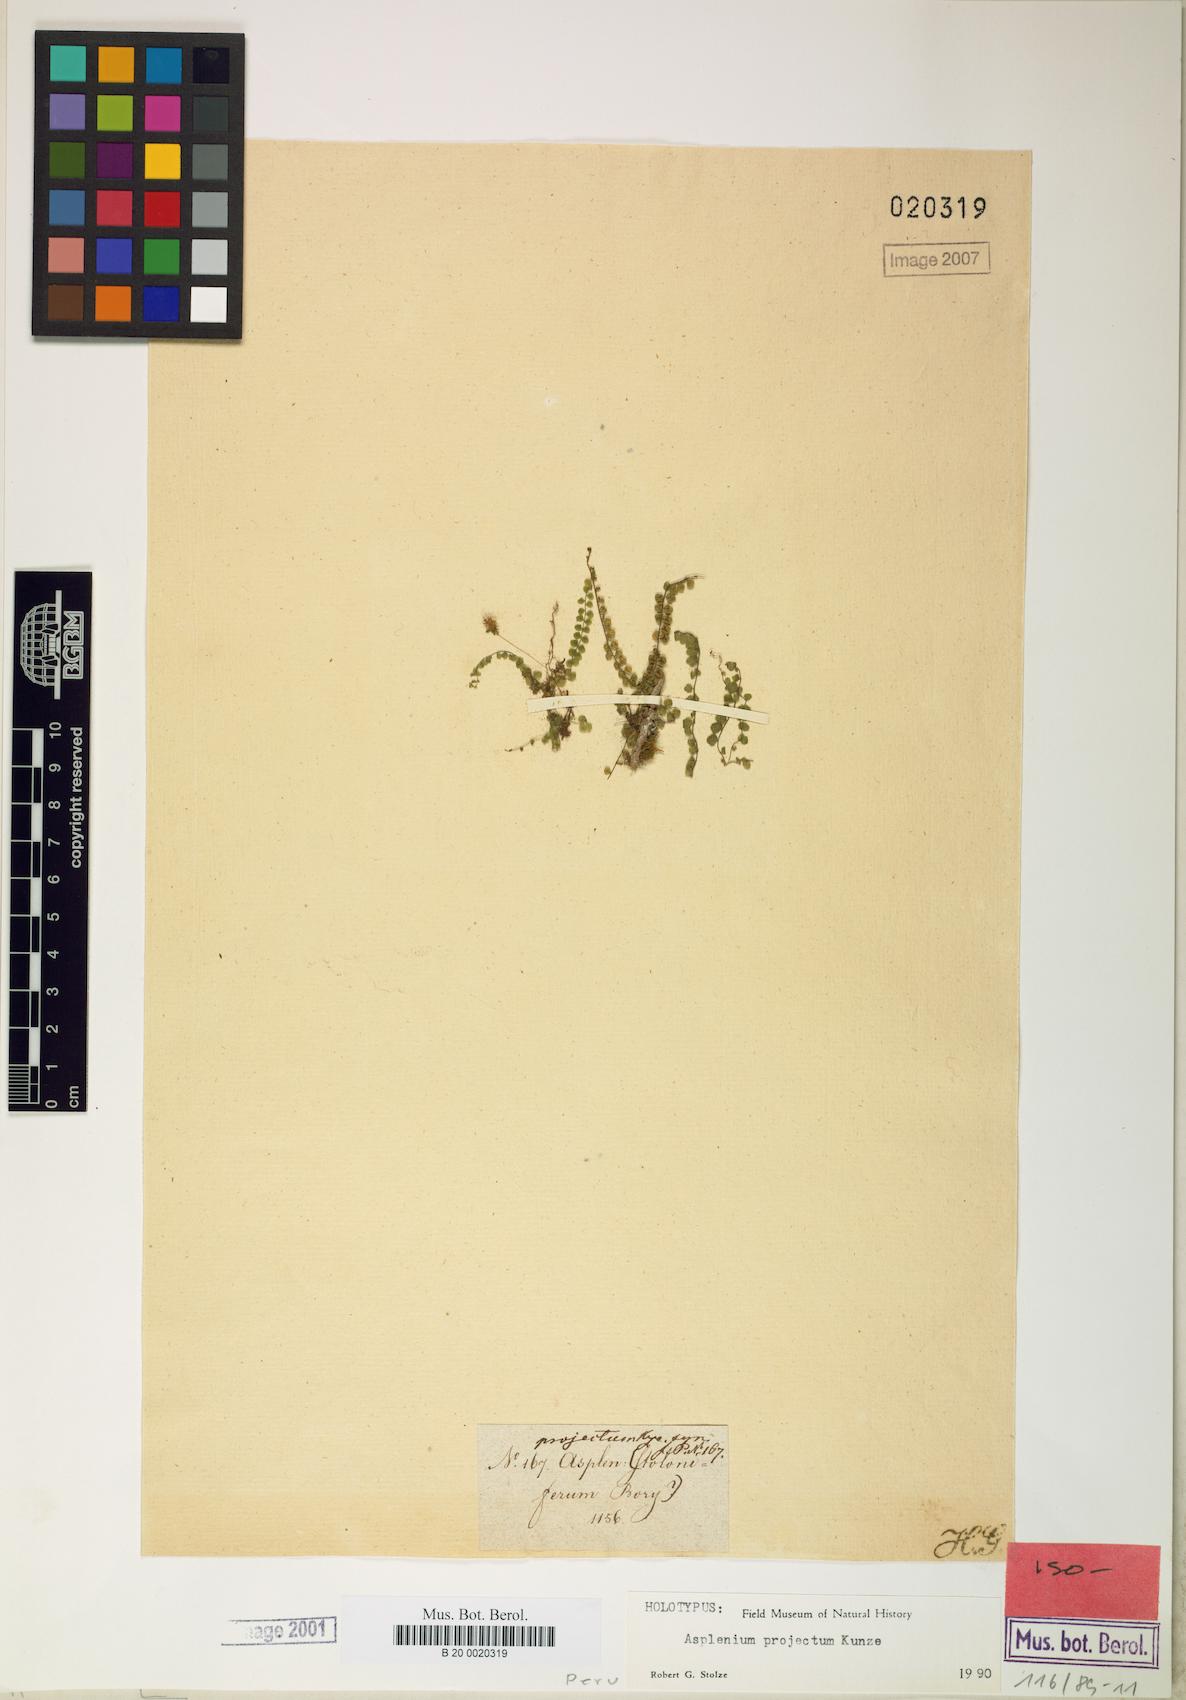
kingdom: Plantae
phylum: Tracheophyta
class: Polypodiopsida
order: Polypodiales
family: Aspleniaceae
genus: Asplenium
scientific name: Asplenium projectum
